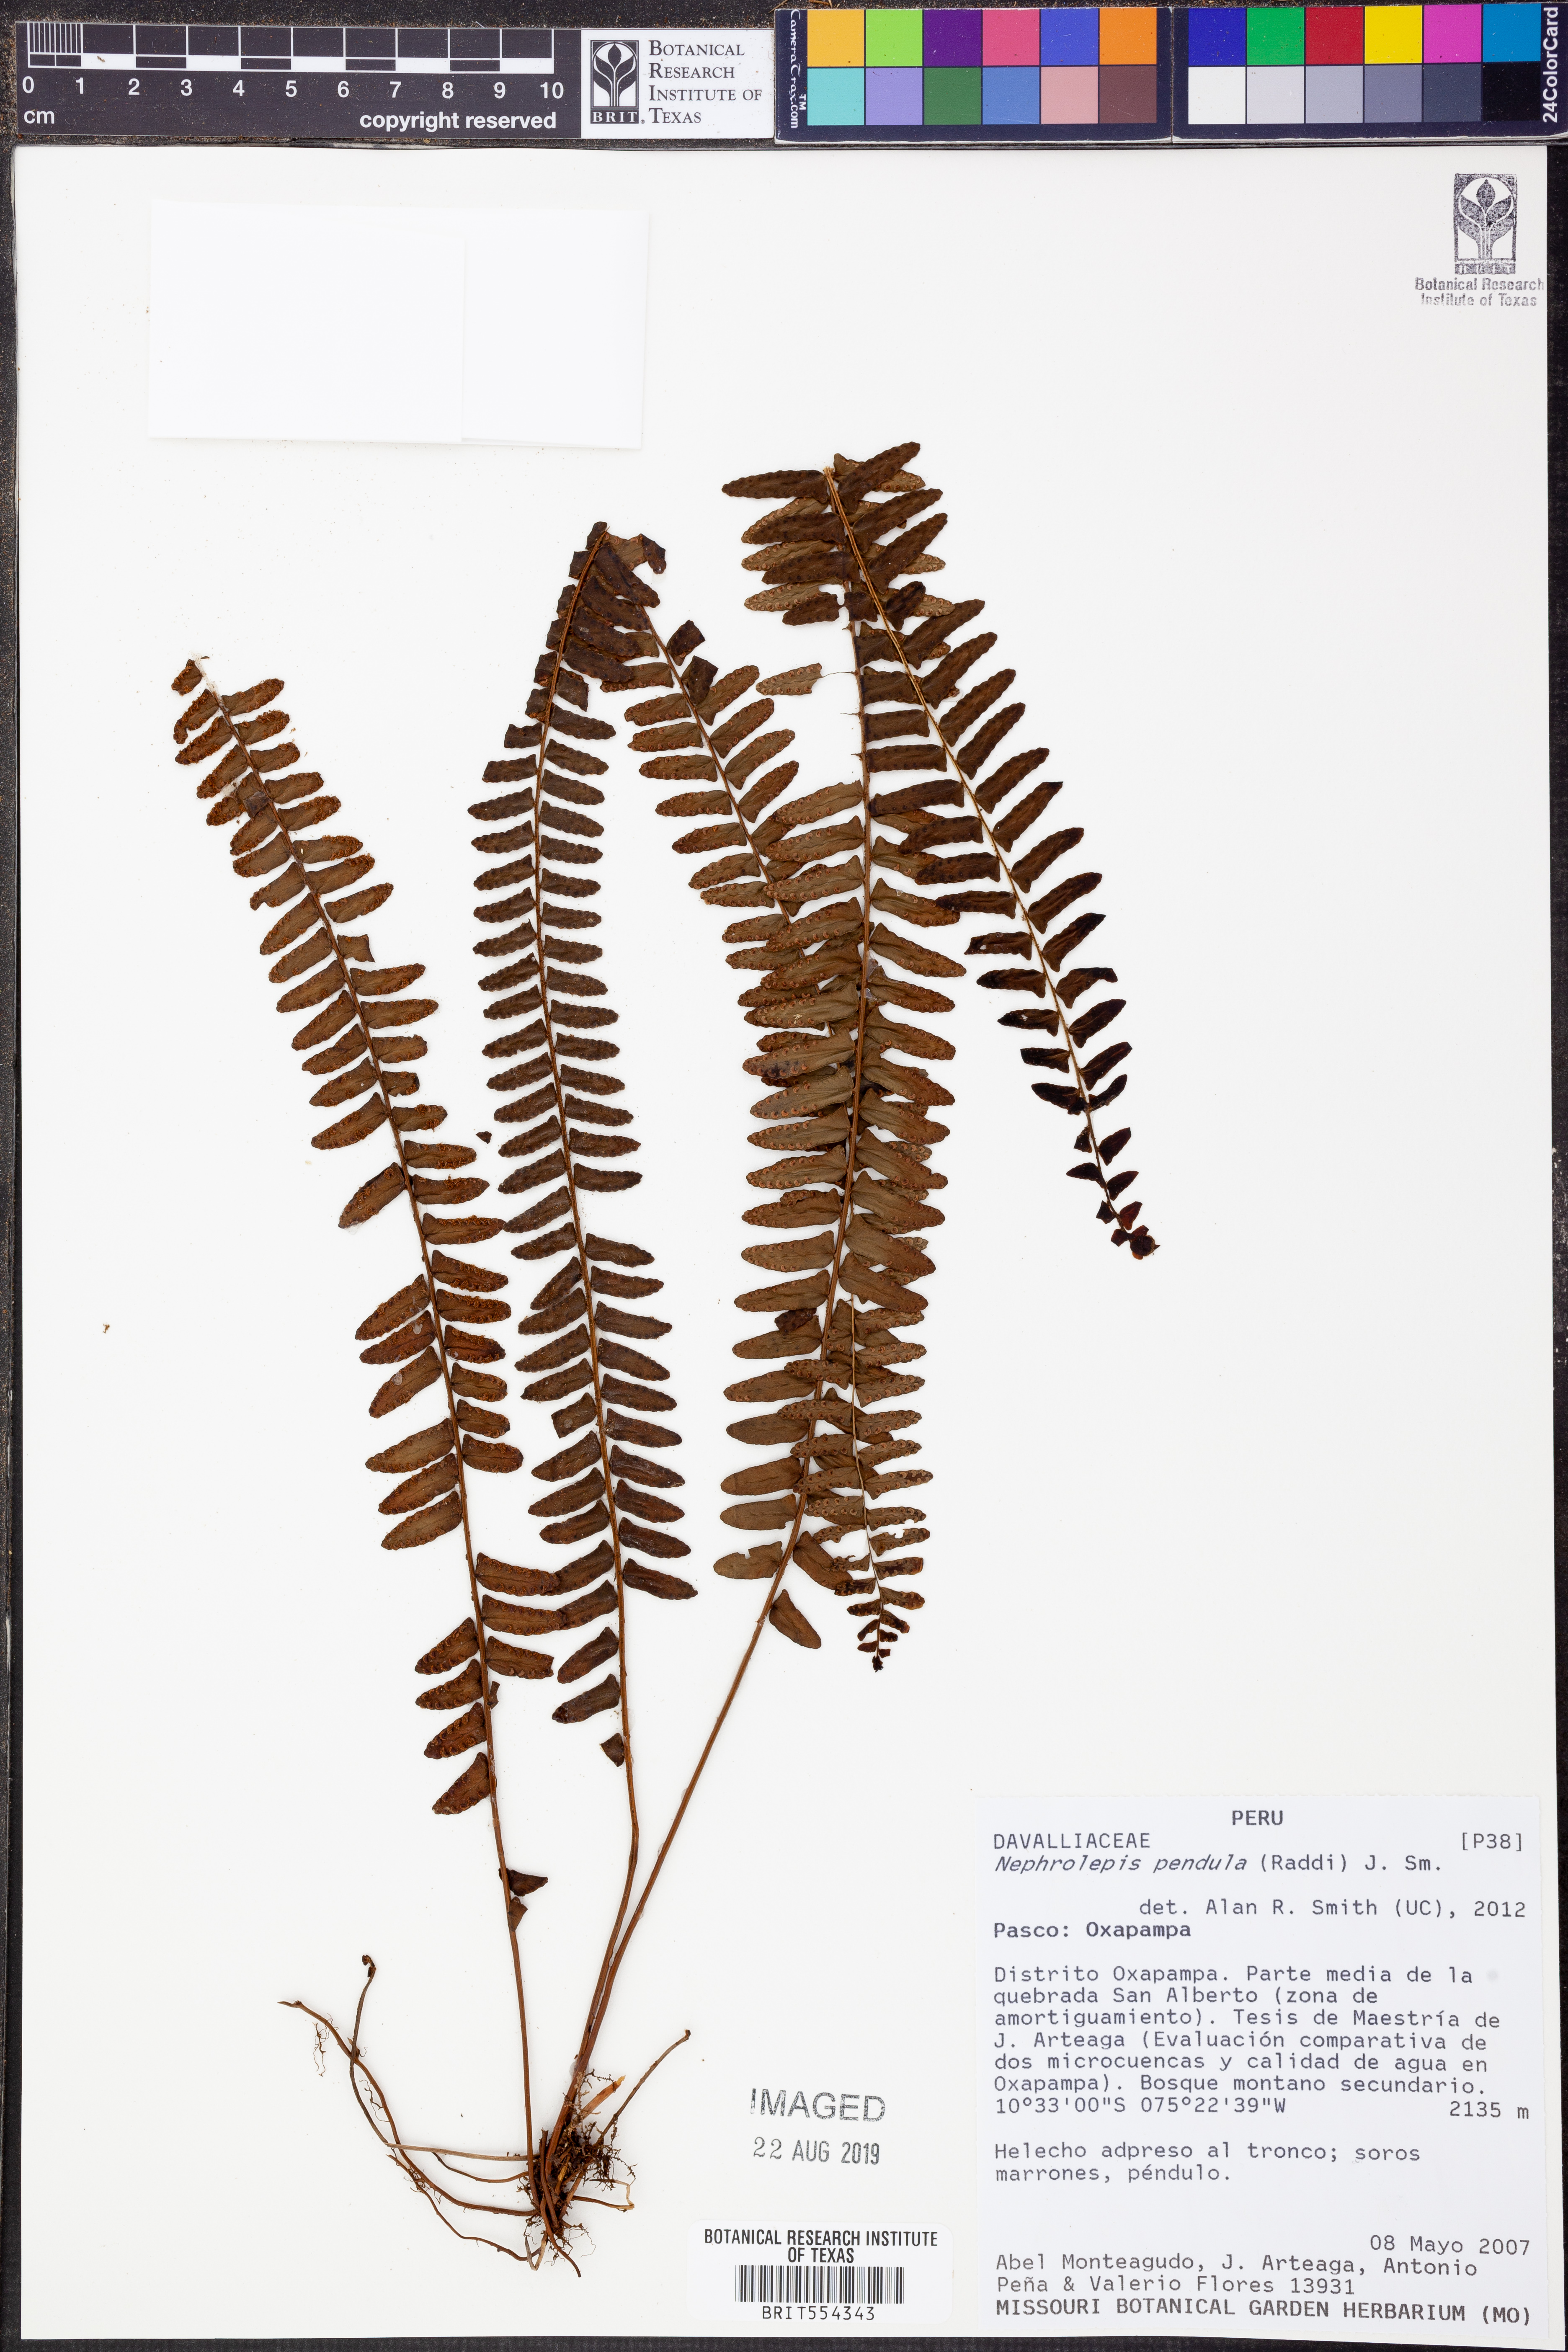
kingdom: Plantae
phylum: Tracheophyta
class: Polypodiopsida
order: Polypodiales
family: Nephrolepidaceae
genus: Nephrolepis
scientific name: Nephrolepis pendula
